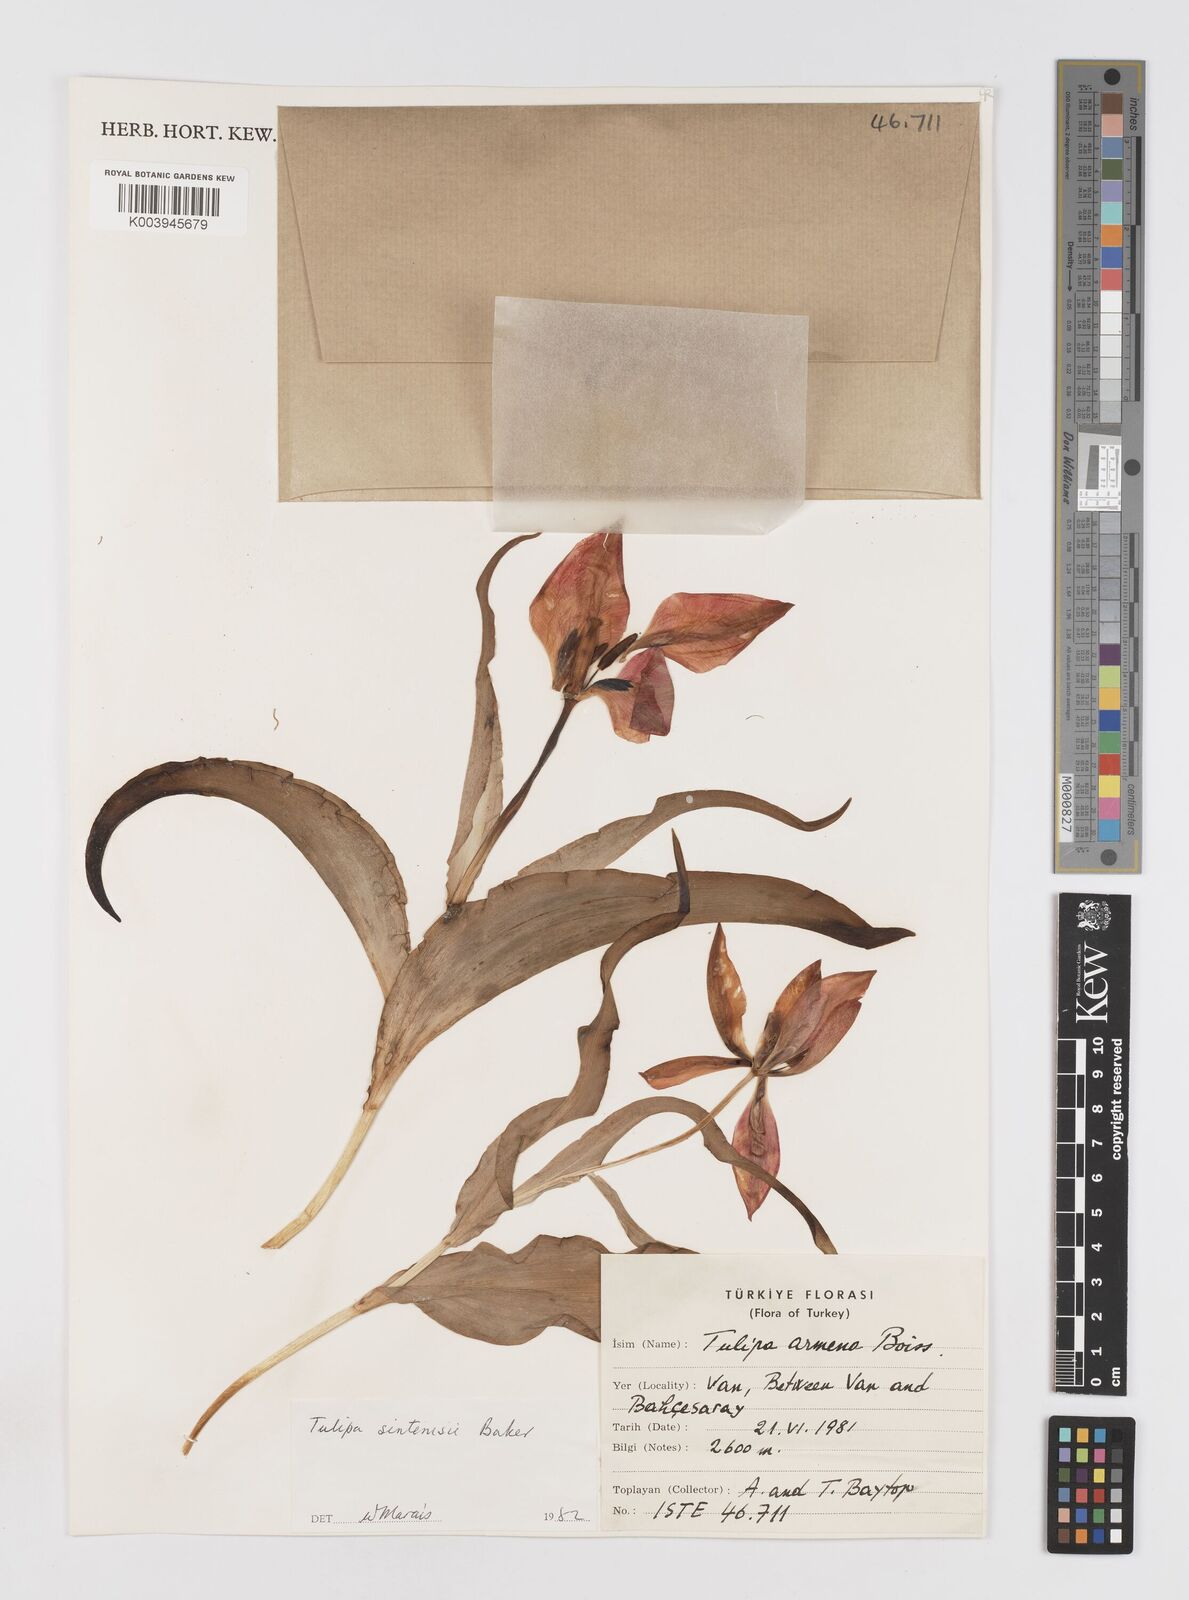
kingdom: Plantae
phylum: Tracheophyta
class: Liliopsida
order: Liliales
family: Liliaceae
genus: Tulipa
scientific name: Tulipa aleppensis
